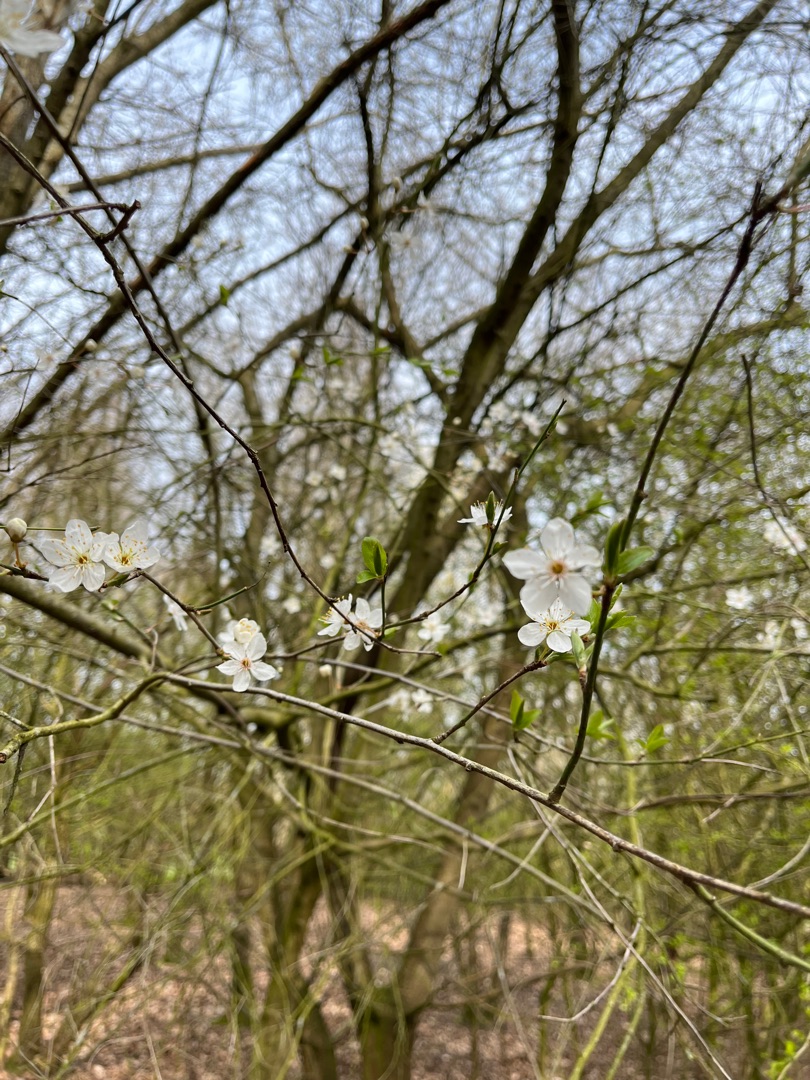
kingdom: Plantae
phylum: Tracheophyta
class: Magnoliopsida
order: Rosales
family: Rosaceae
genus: Prunus
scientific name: Prunus cerasifera
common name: Mirabel
